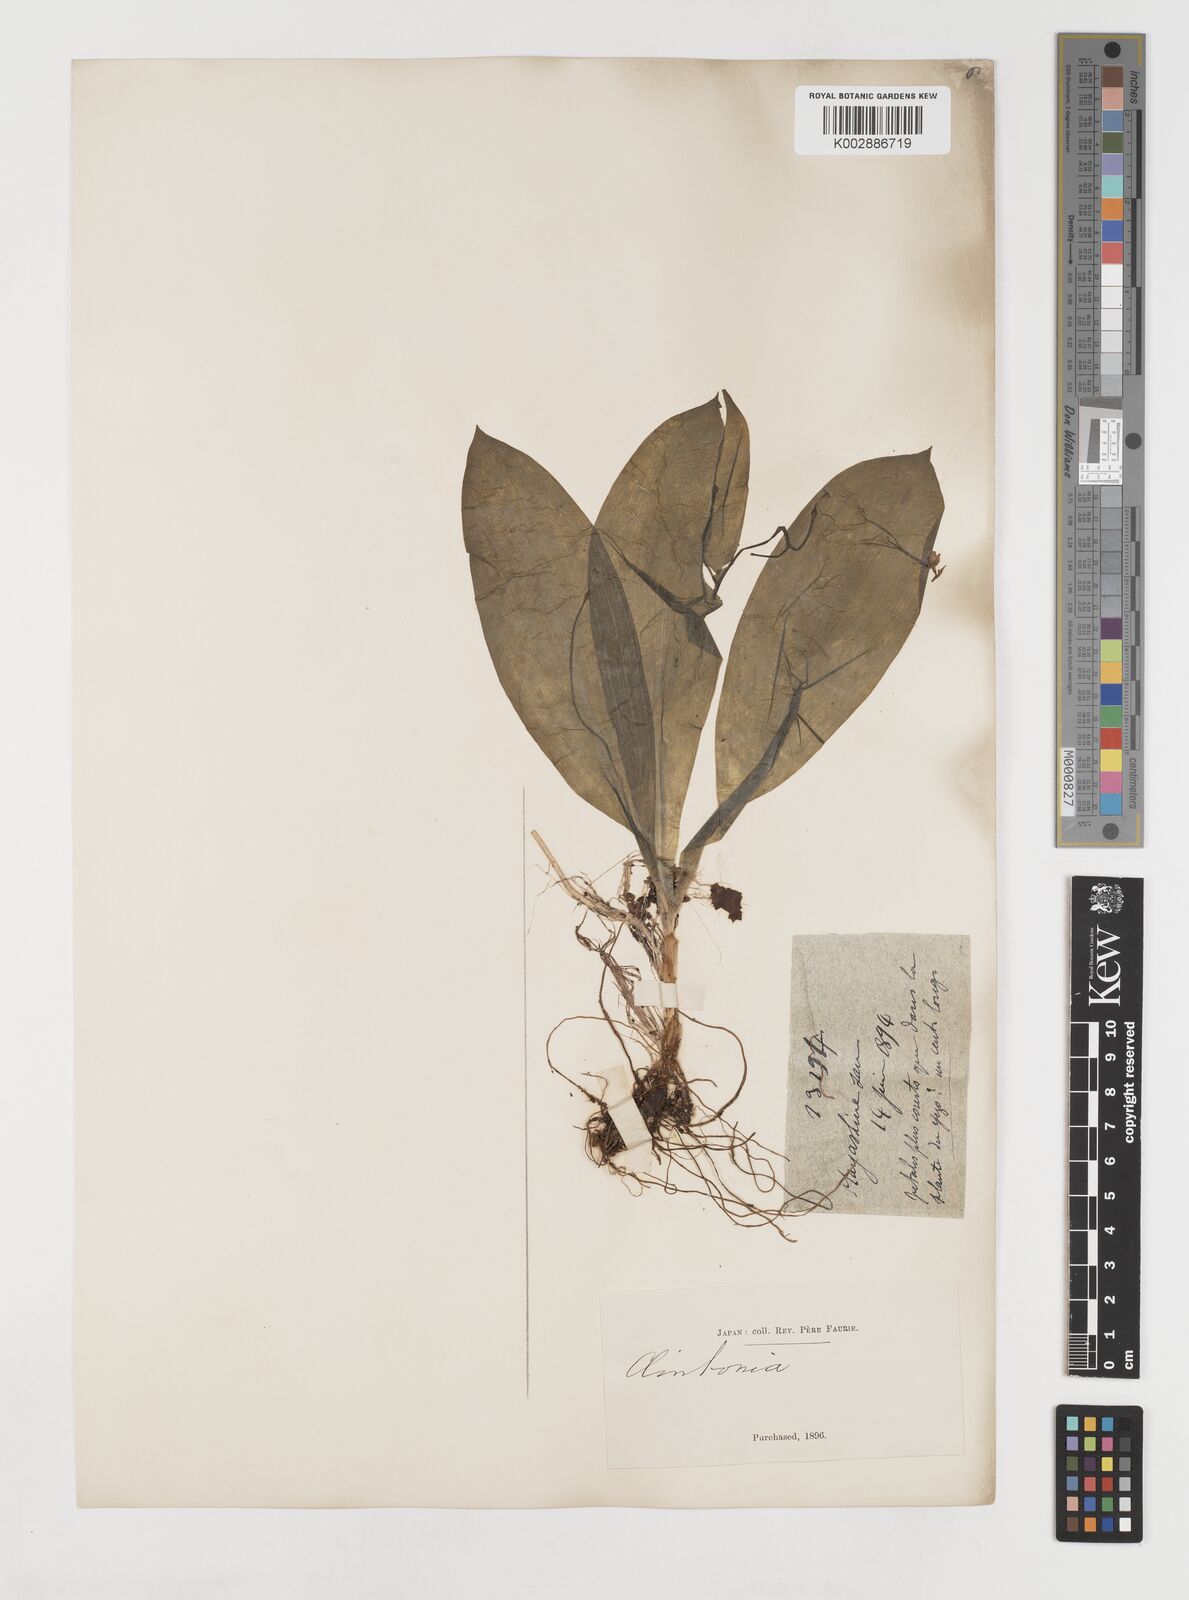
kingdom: Plantae
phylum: Tracheophyta
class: Liliopsida
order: Liliales
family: Liliaceae
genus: Clintonia
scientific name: Clintonia udensis
